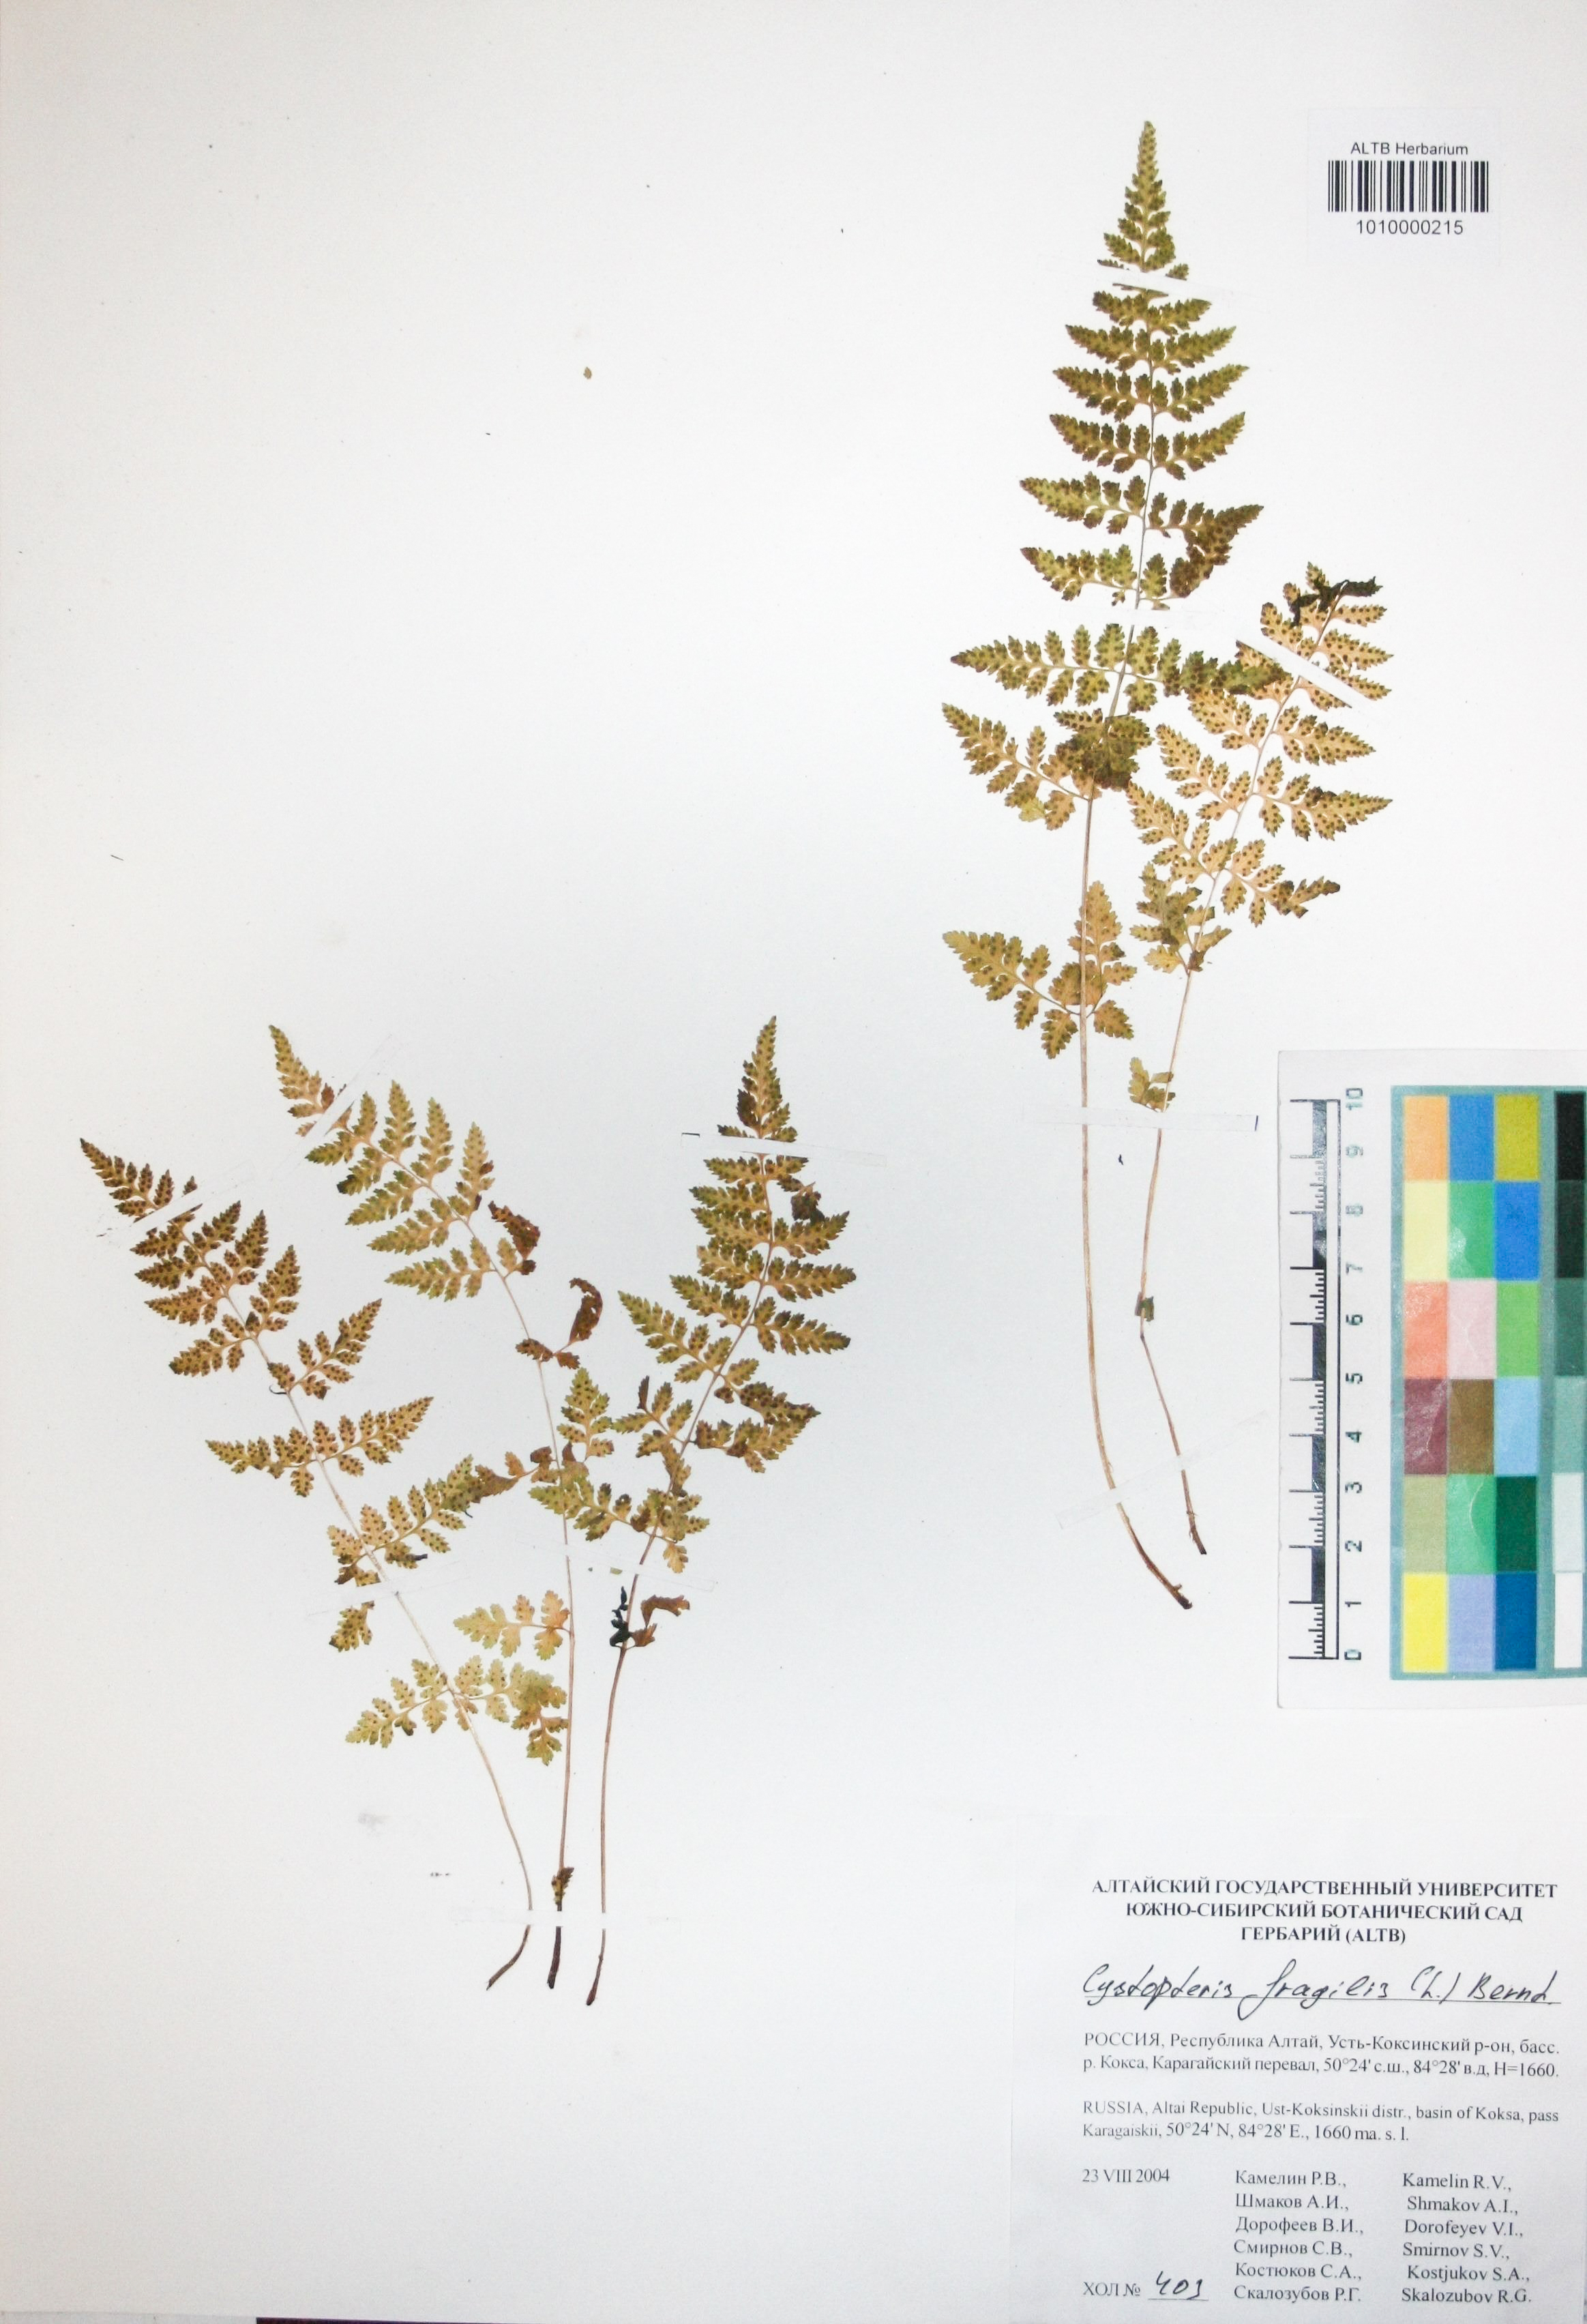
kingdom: Plantae
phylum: Tracheophyta
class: Polypodiopsida
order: Polypodiales
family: Cystopteridaceae
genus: Cystopteris
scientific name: Cystopteris fragilis
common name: Brittle bladder fern
